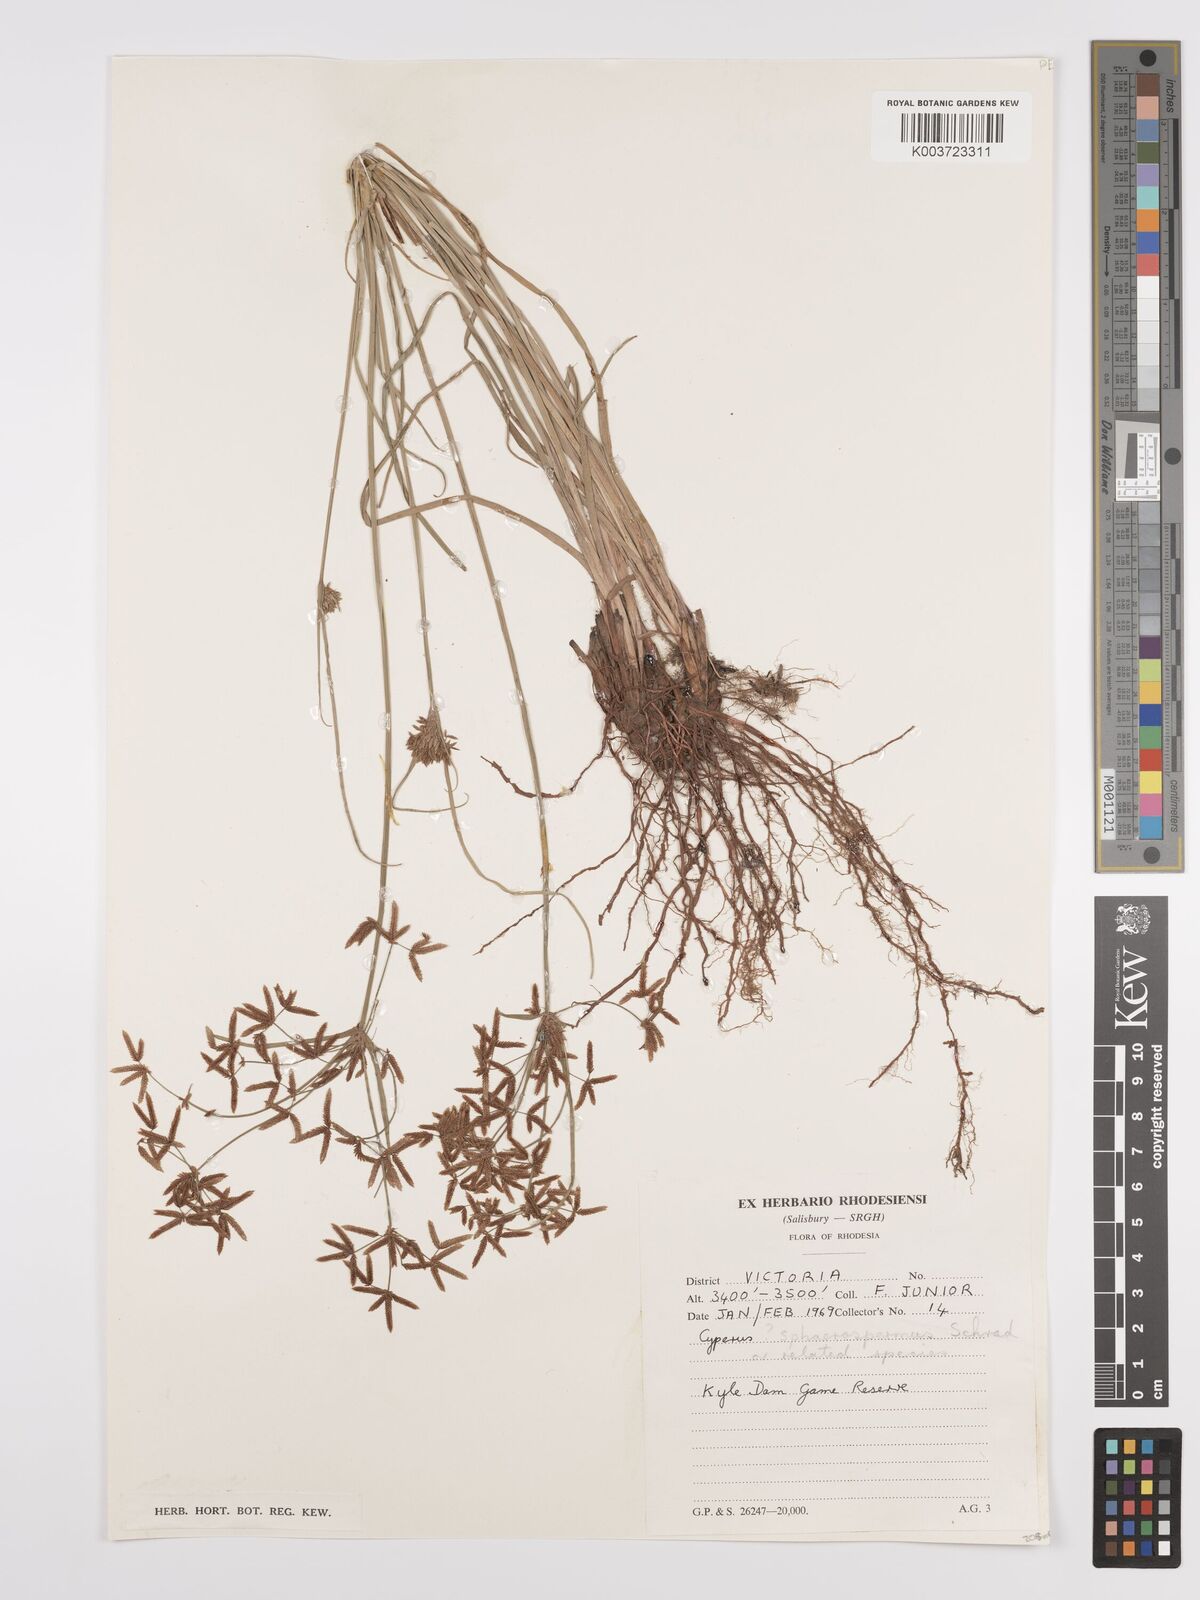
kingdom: Plantae
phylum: Tracheophyta
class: Liliopsida
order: Poales
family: Cyperaceae
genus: Cyperus
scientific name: Cyperus denudatus
